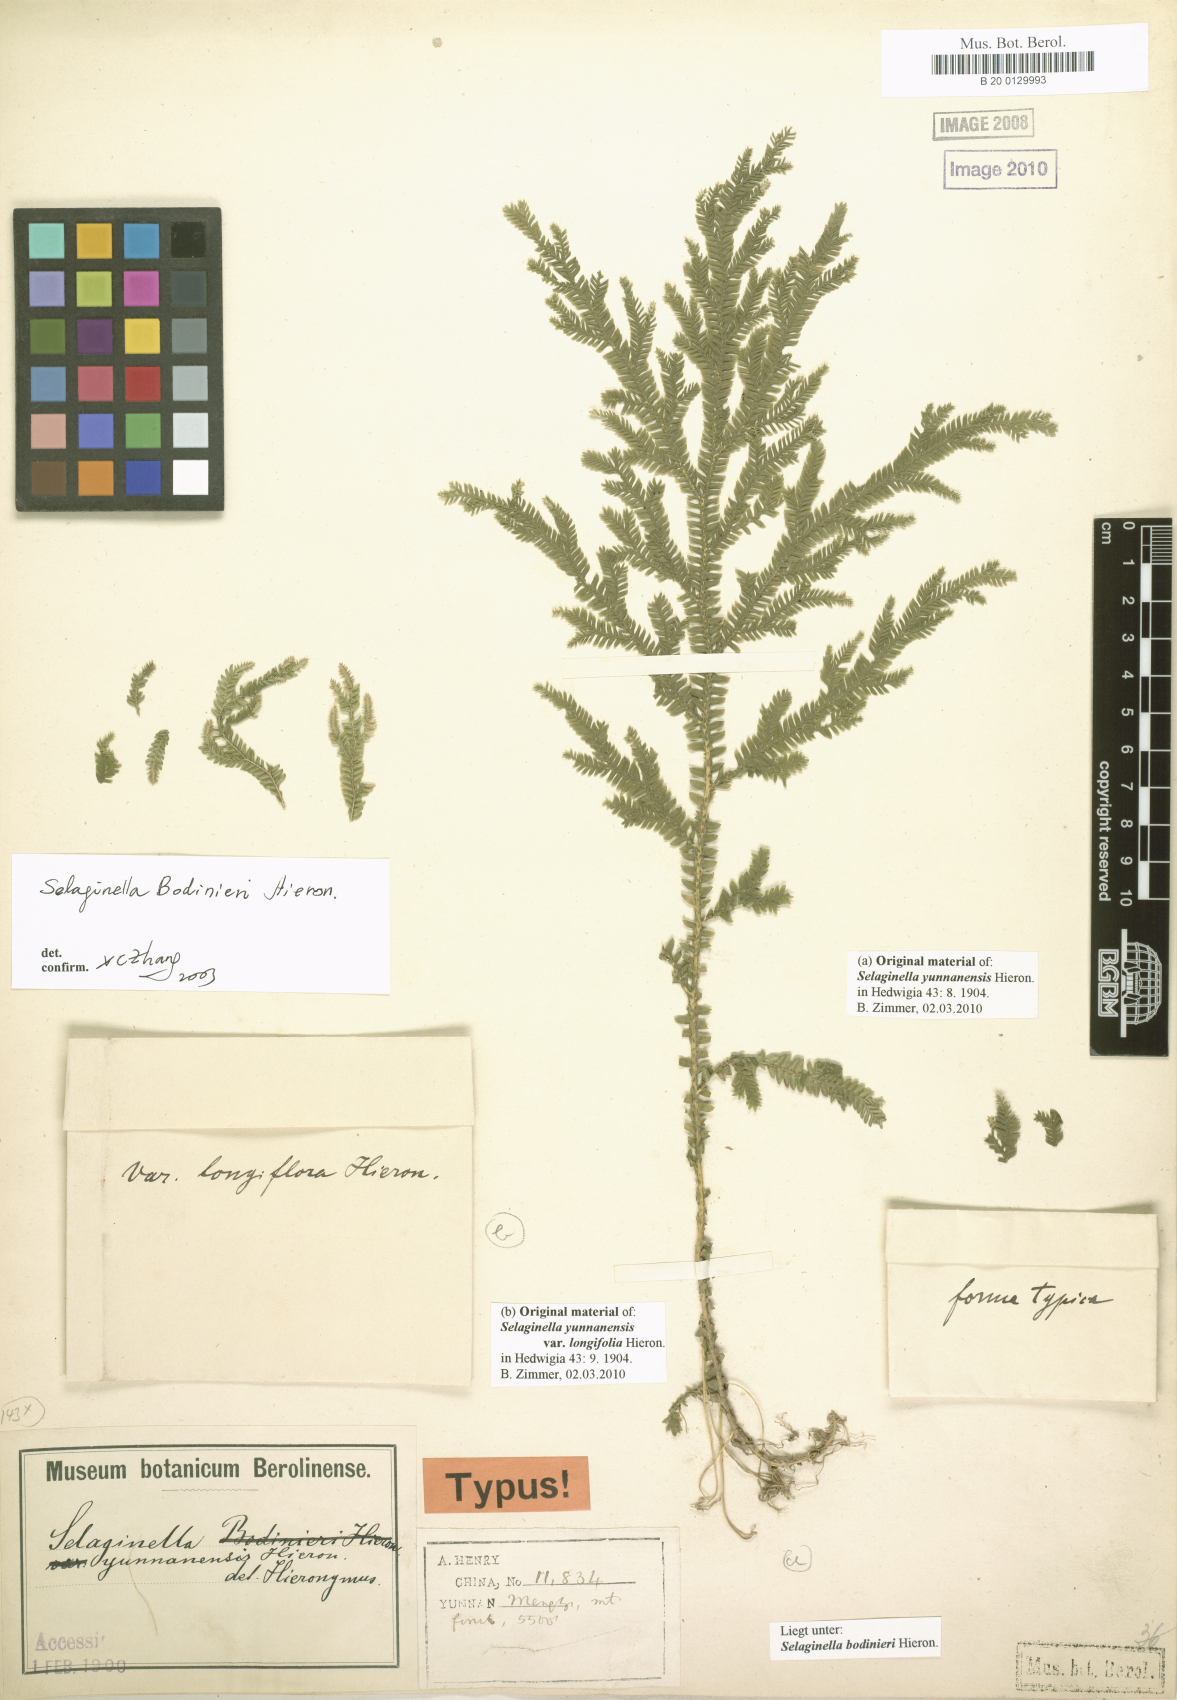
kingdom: Plantae
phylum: Tracheophyta
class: Lycopodiopsida
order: Selaginellales
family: Selaginellaceae
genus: Selaginella
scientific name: Selaginella bodinieri
